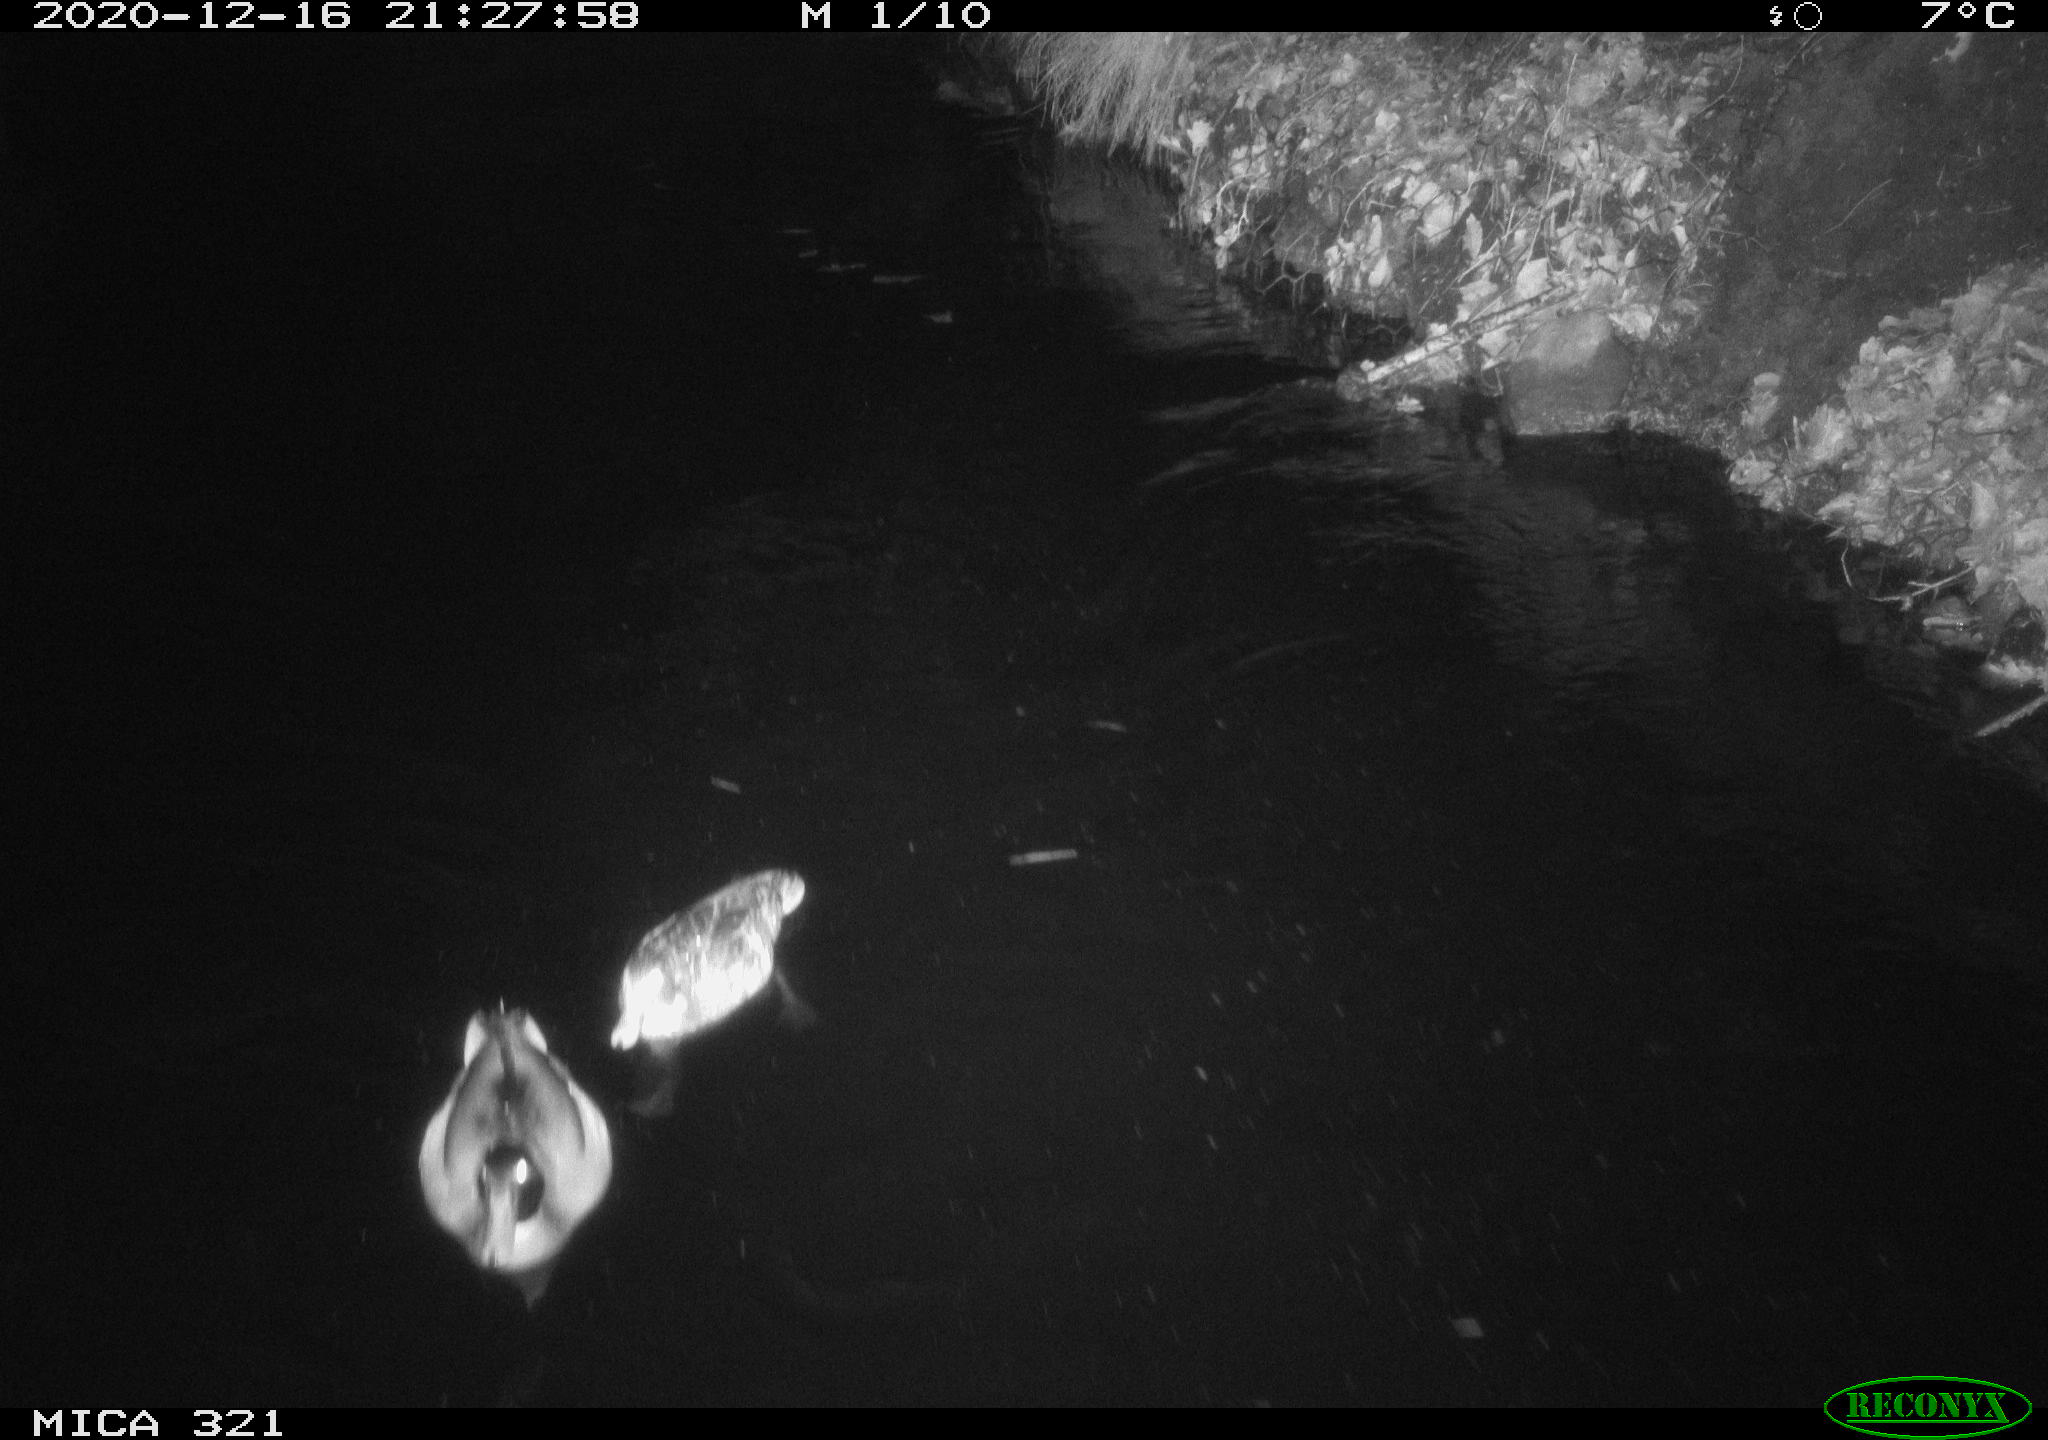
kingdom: Animalia
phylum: Chordata
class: Aves
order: Anseriformes
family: Anatidae
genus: Anas
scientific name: Anas platyrhynchos
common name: Mallard
